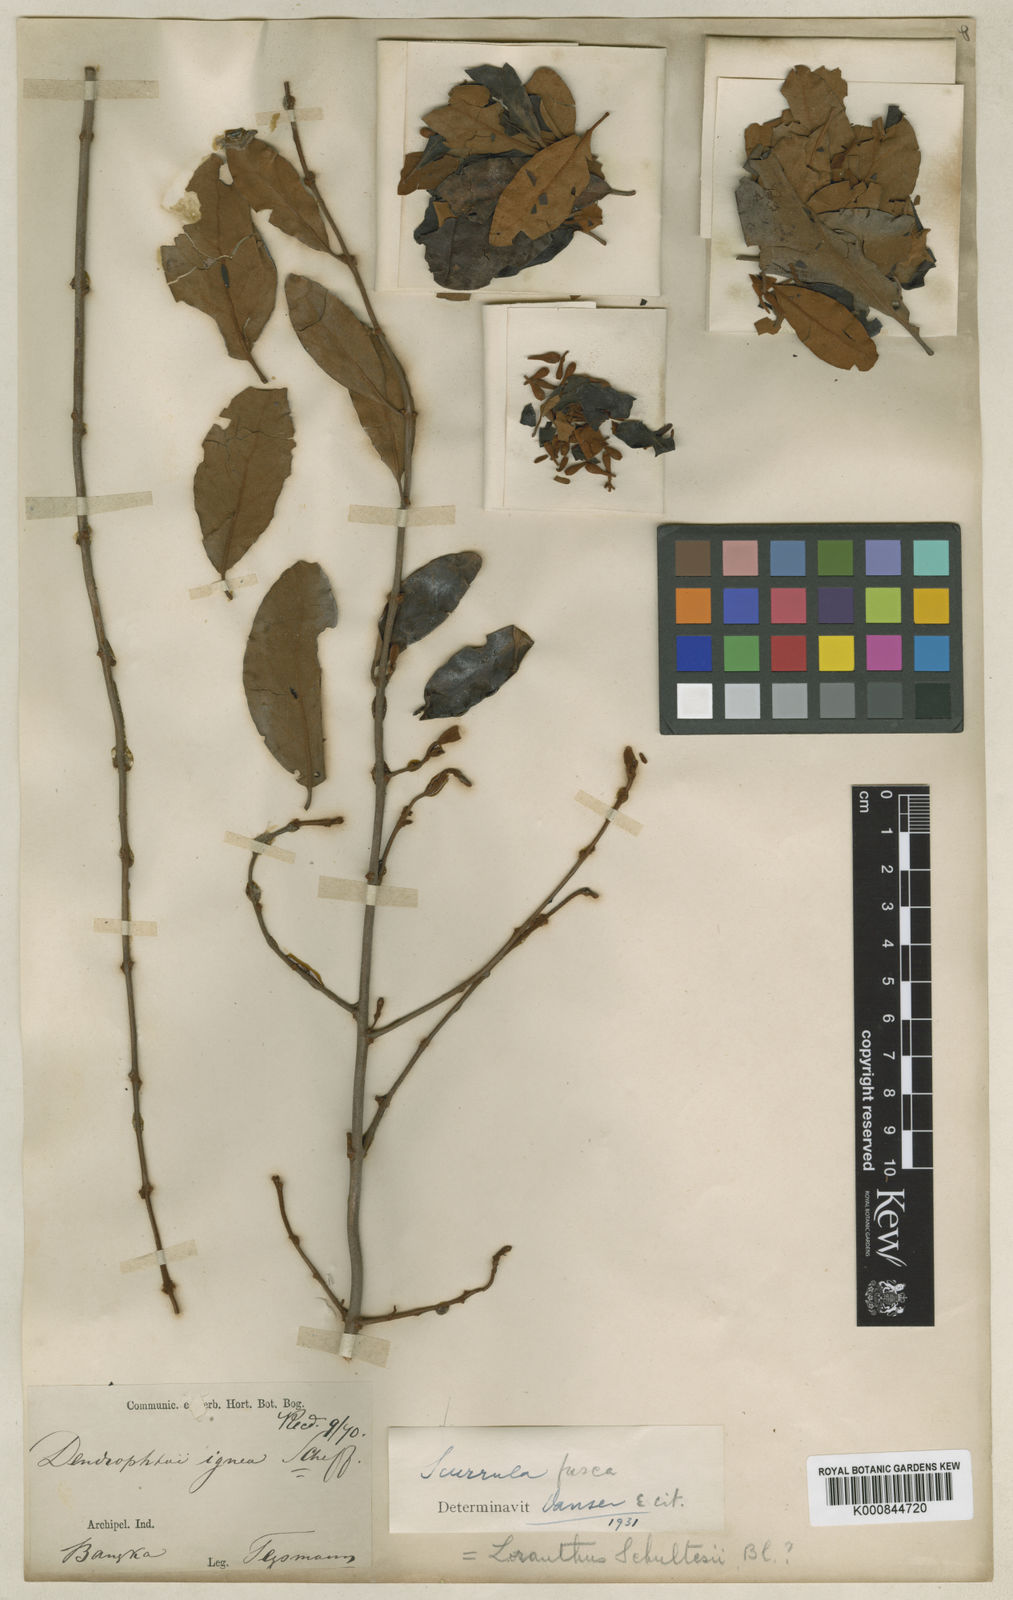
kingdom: Plantae
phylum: Tracheophyta
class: Magnoliopsida
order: Santalales
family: Loranthaceae
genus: Scurrula
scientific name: Scurrula fusca
